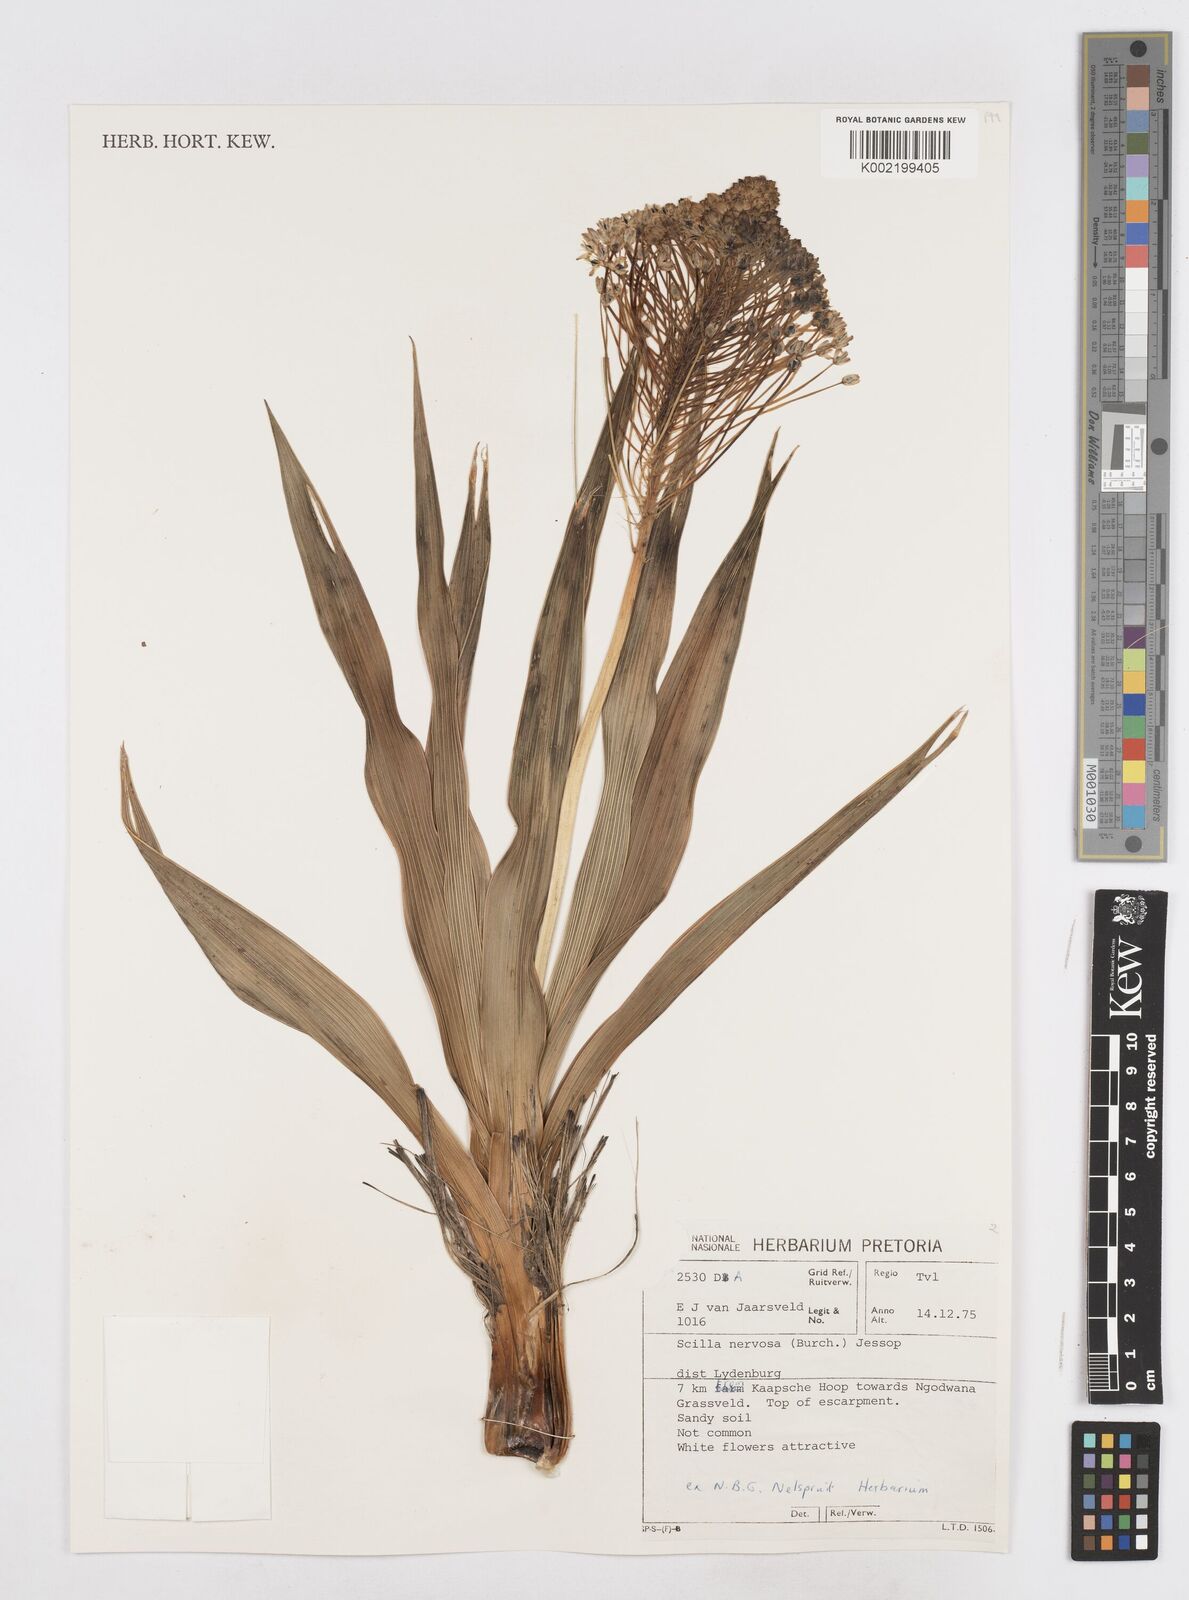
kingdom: Plantae
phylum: Tracheophyta
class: Liliopsida
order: Asparagales
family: Asparagaceae
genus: Schizocarphus
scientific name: Schizocarphus nervosus
